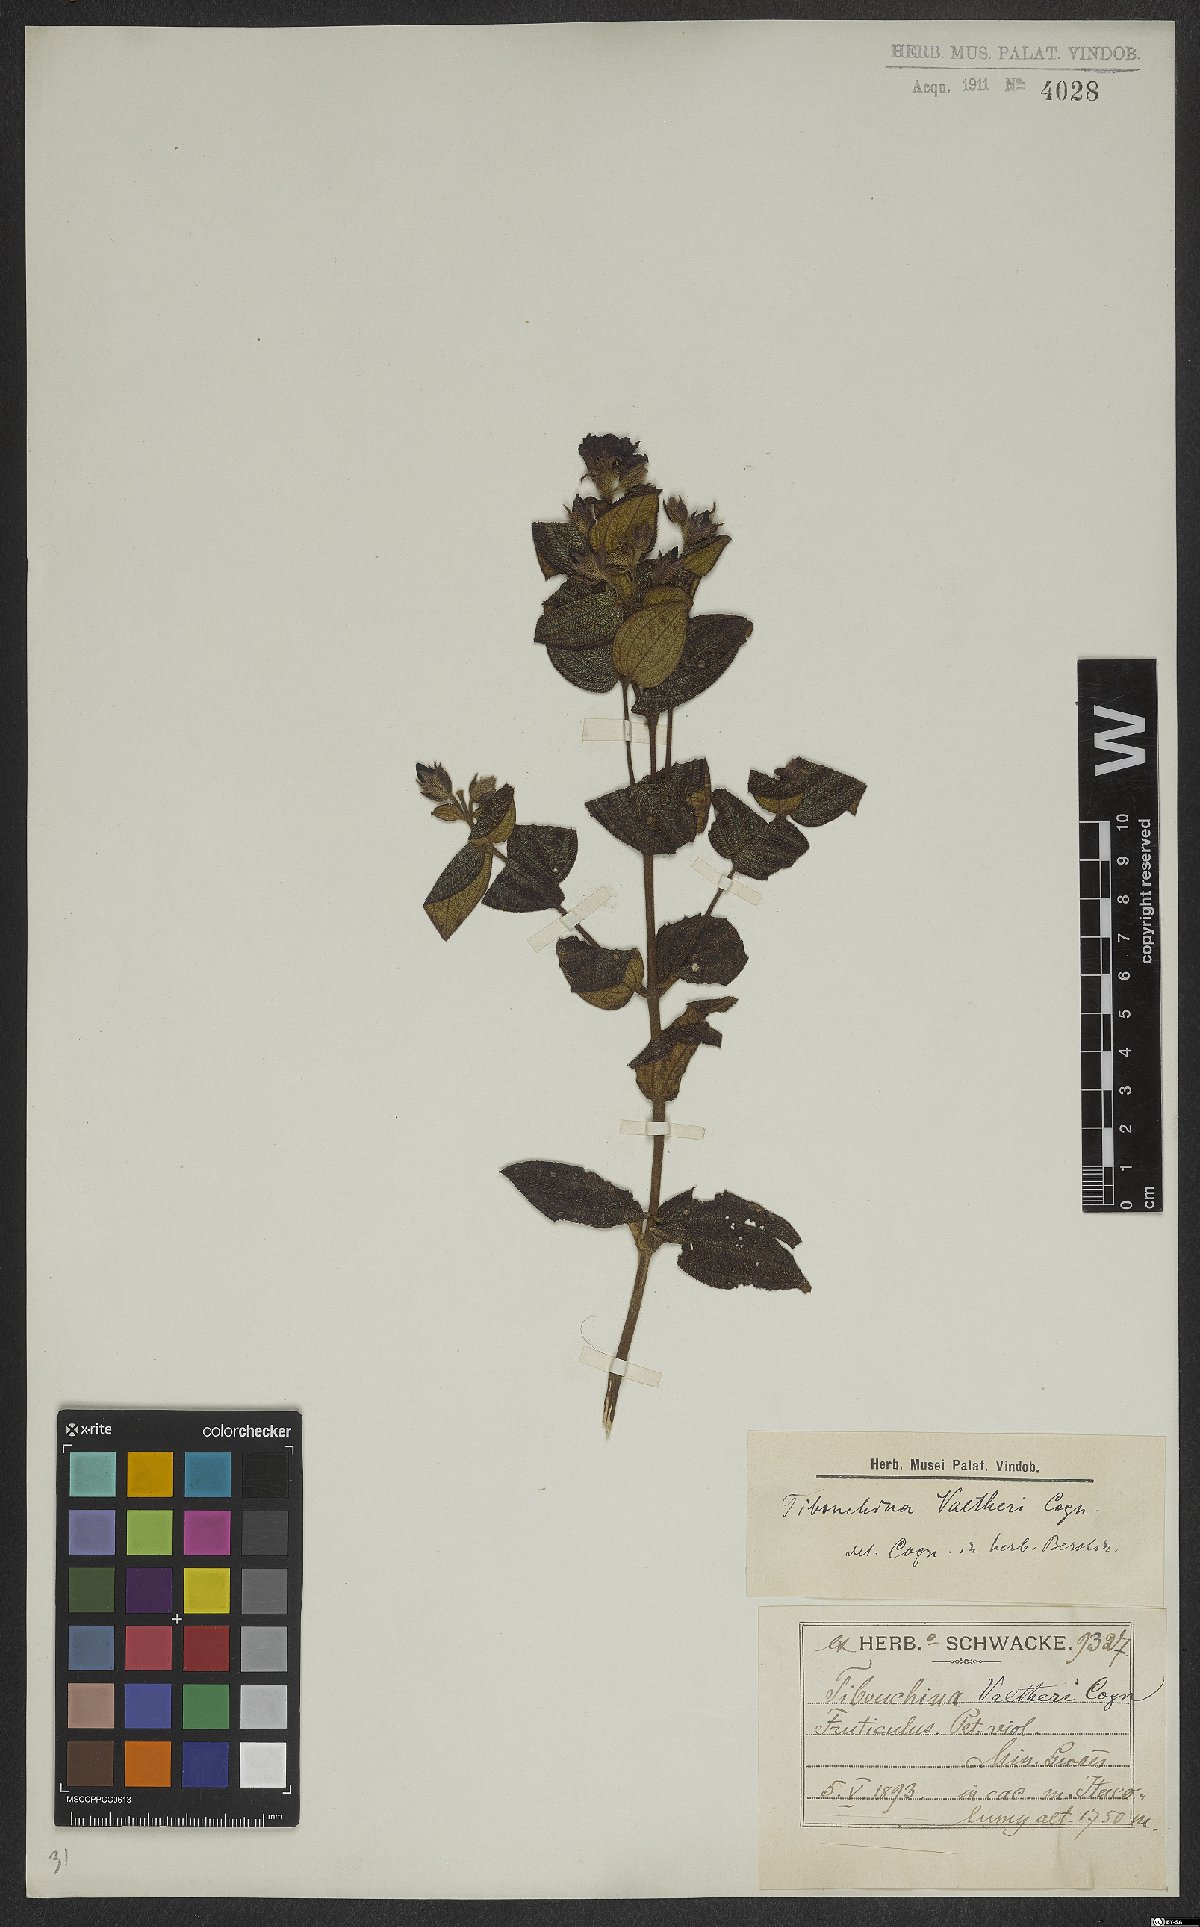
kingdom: Plantae
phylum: Tracheophyta
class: Magnoliopsida
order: Myrtales
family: Melastomataceae
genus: Pleroma
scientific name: Pleroma aemula
